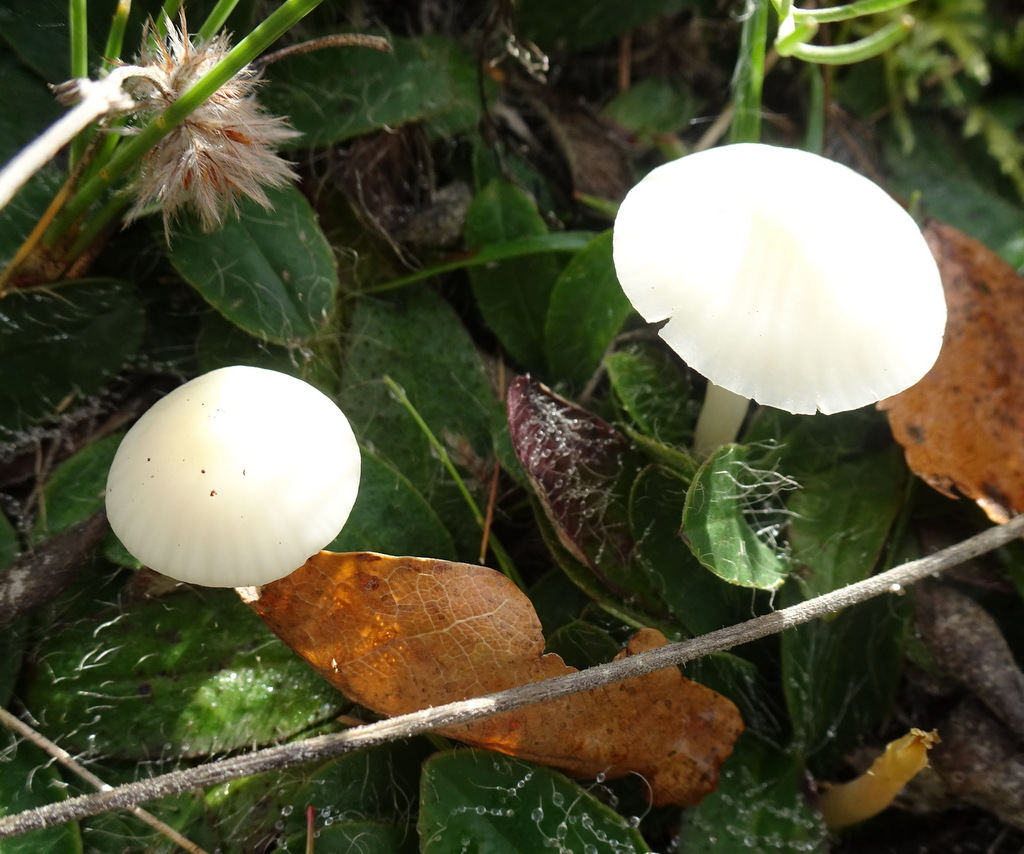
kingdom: Fungi
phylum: Basidiomycota
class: Agaricomycetes
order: Agaricales
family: Hygrophoraceae
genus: Cuphophyllus
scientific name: Cuphophyllus virgineus
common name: snehvid vokshat
